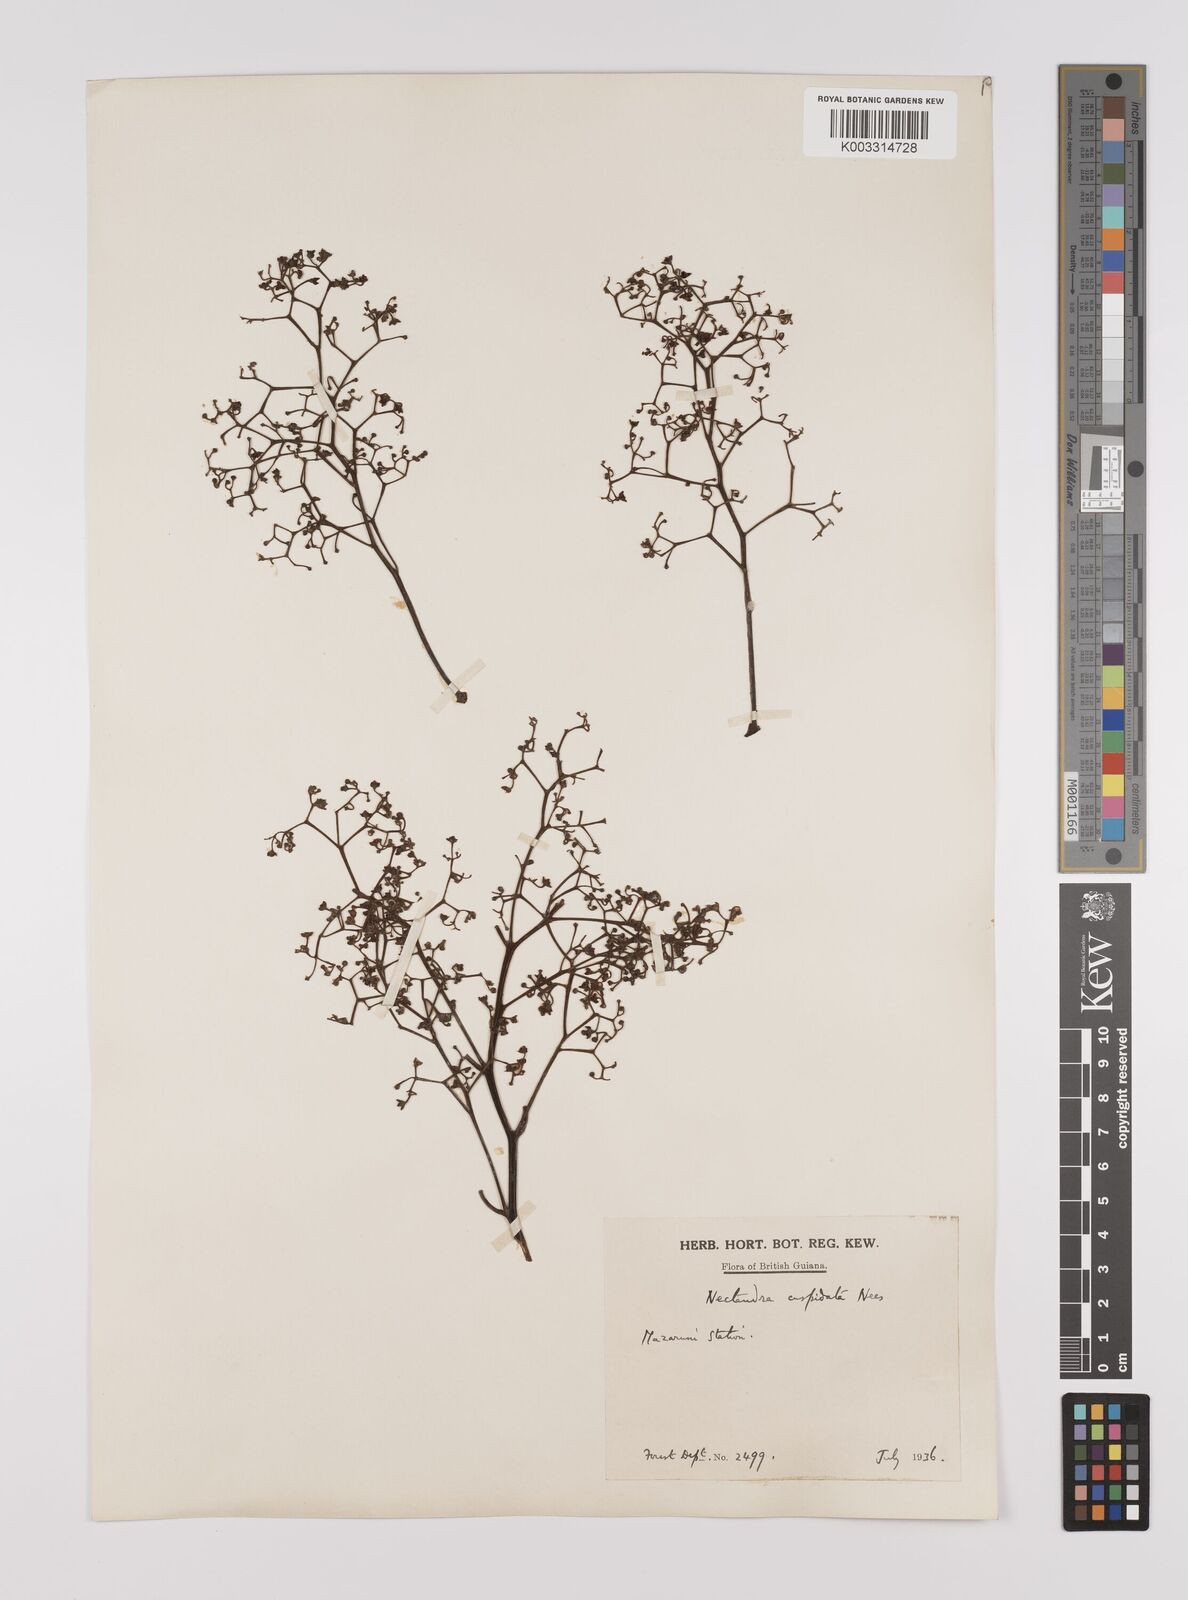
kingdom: Plantae
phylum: Tracheophyta
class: Magnoliopsida
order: Laurales
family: Lauraceae
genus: Nectandra
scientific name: Nectandra cuspidata
